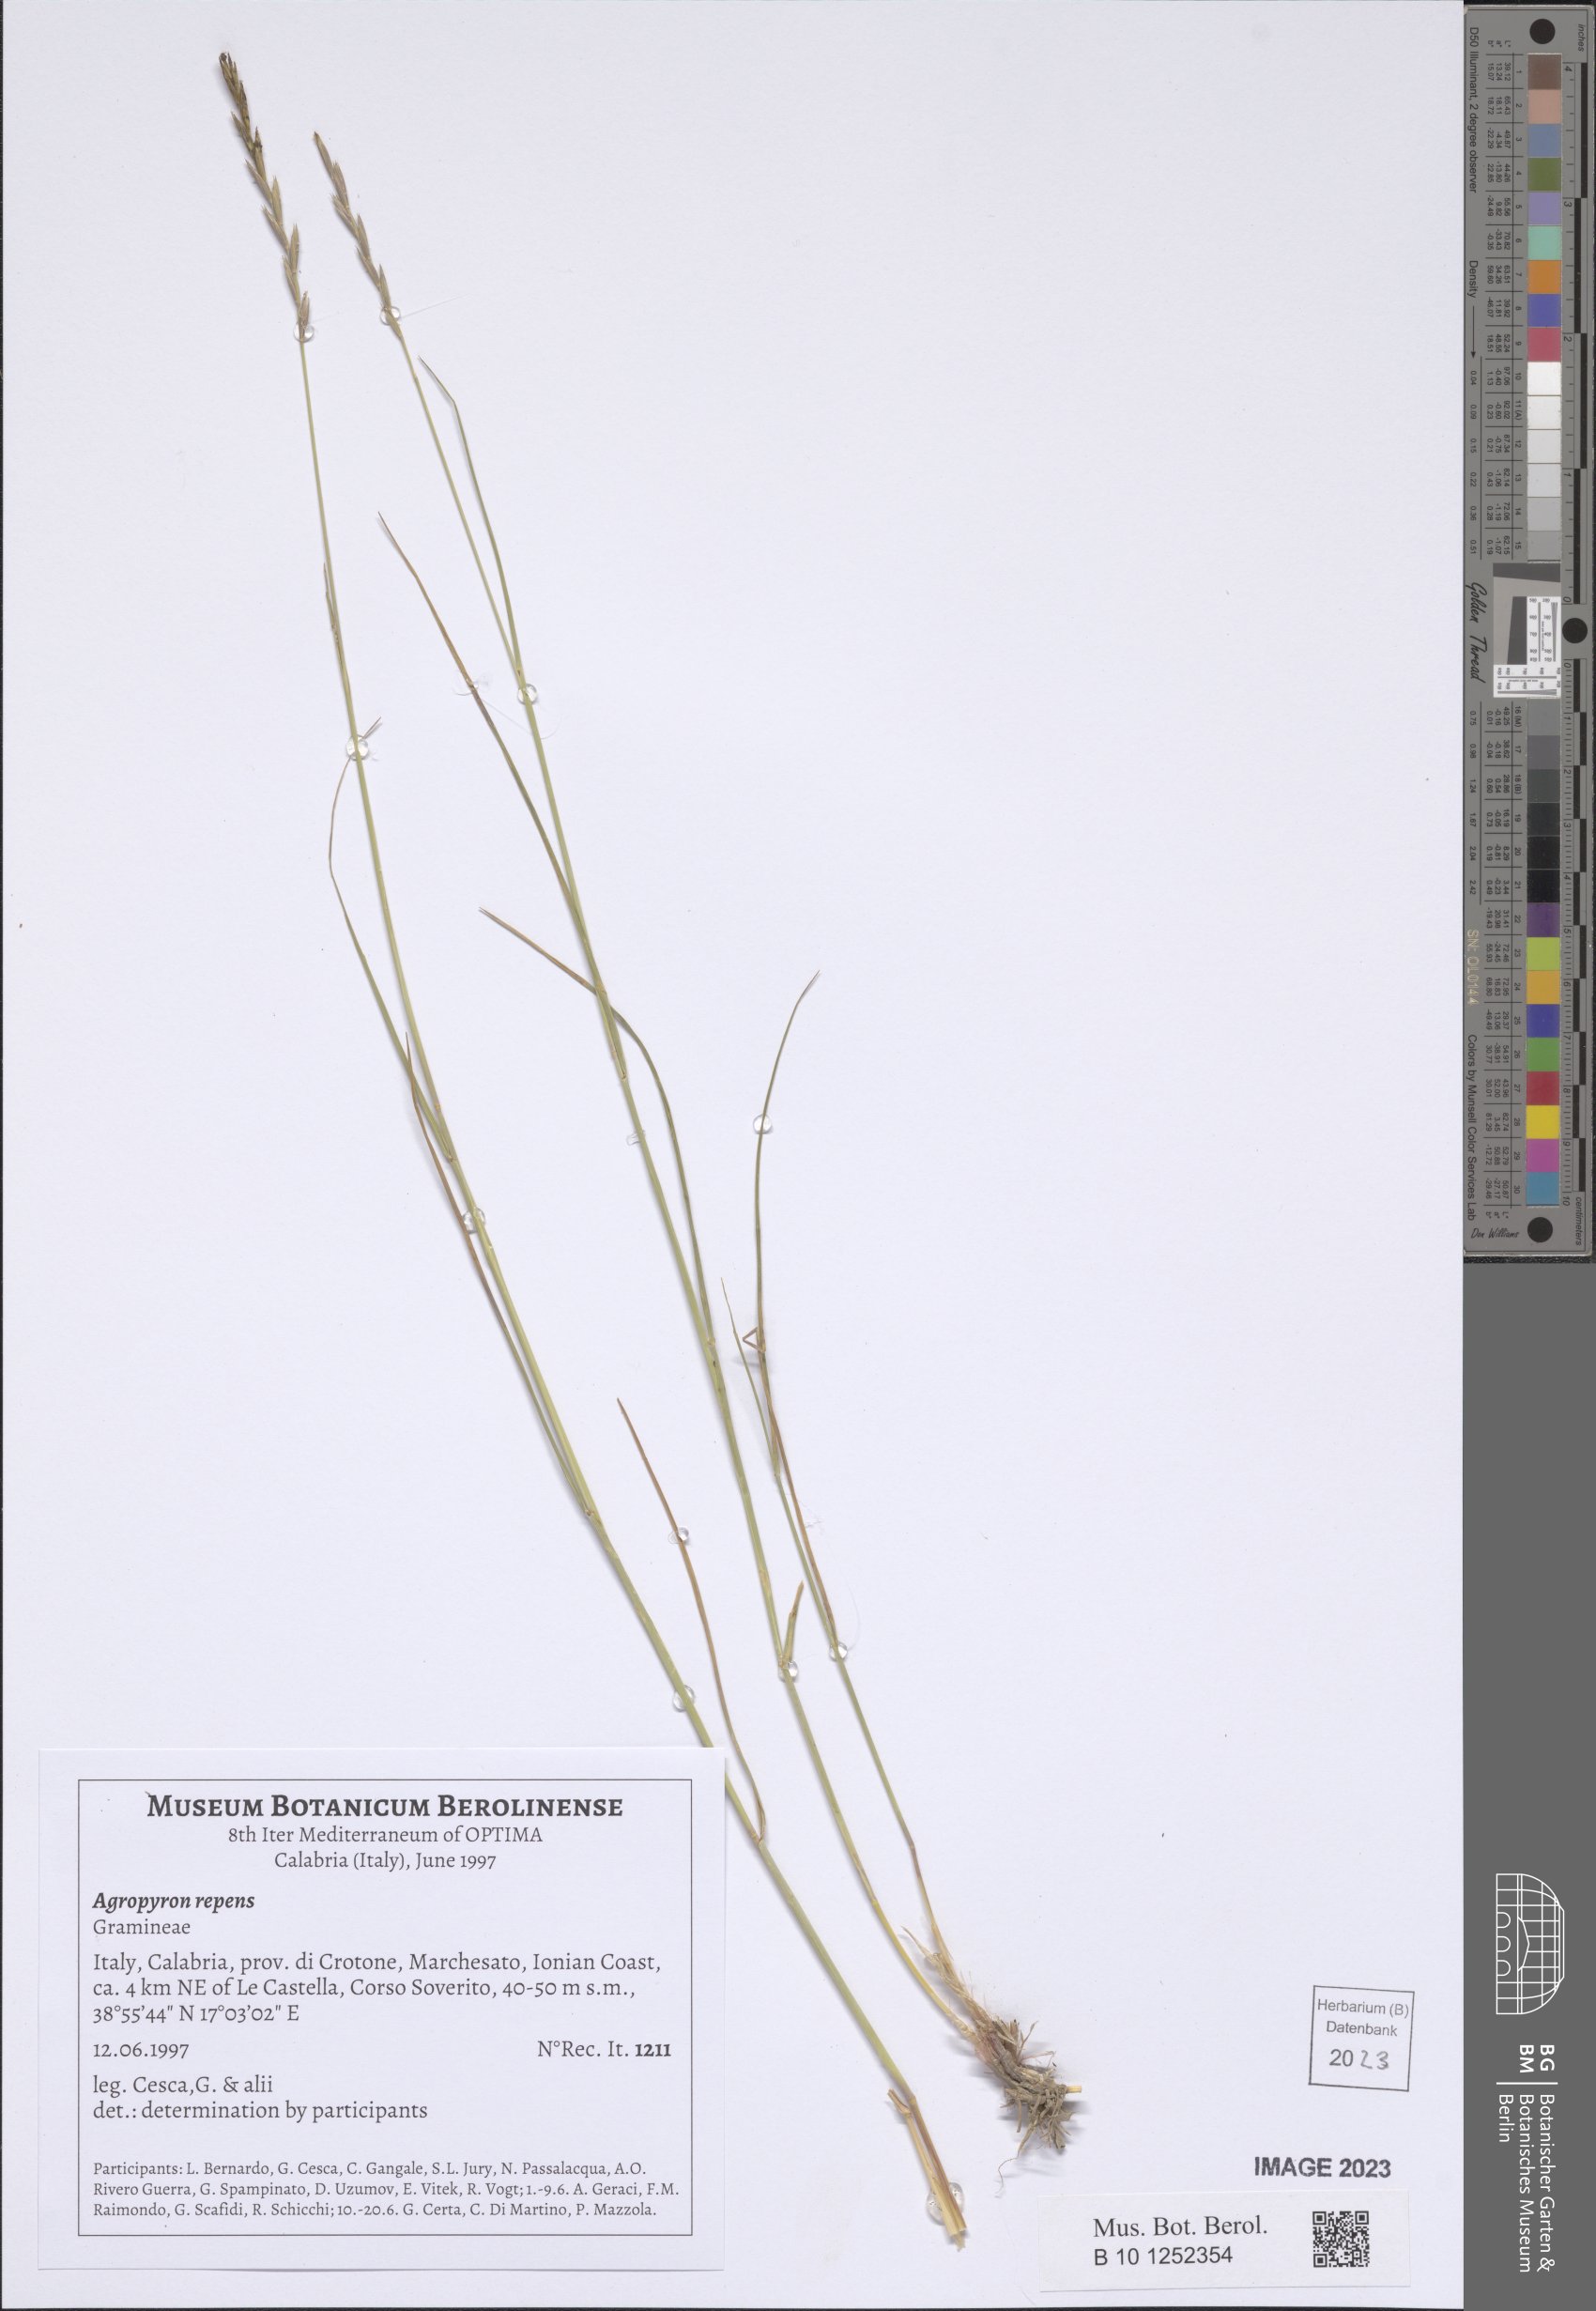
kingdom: Plantae
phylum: Tracheophyta
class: Liliopsida
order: Poales
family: Poaceae
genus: Elymus
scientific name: Elymus repens
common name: Quackgrass
